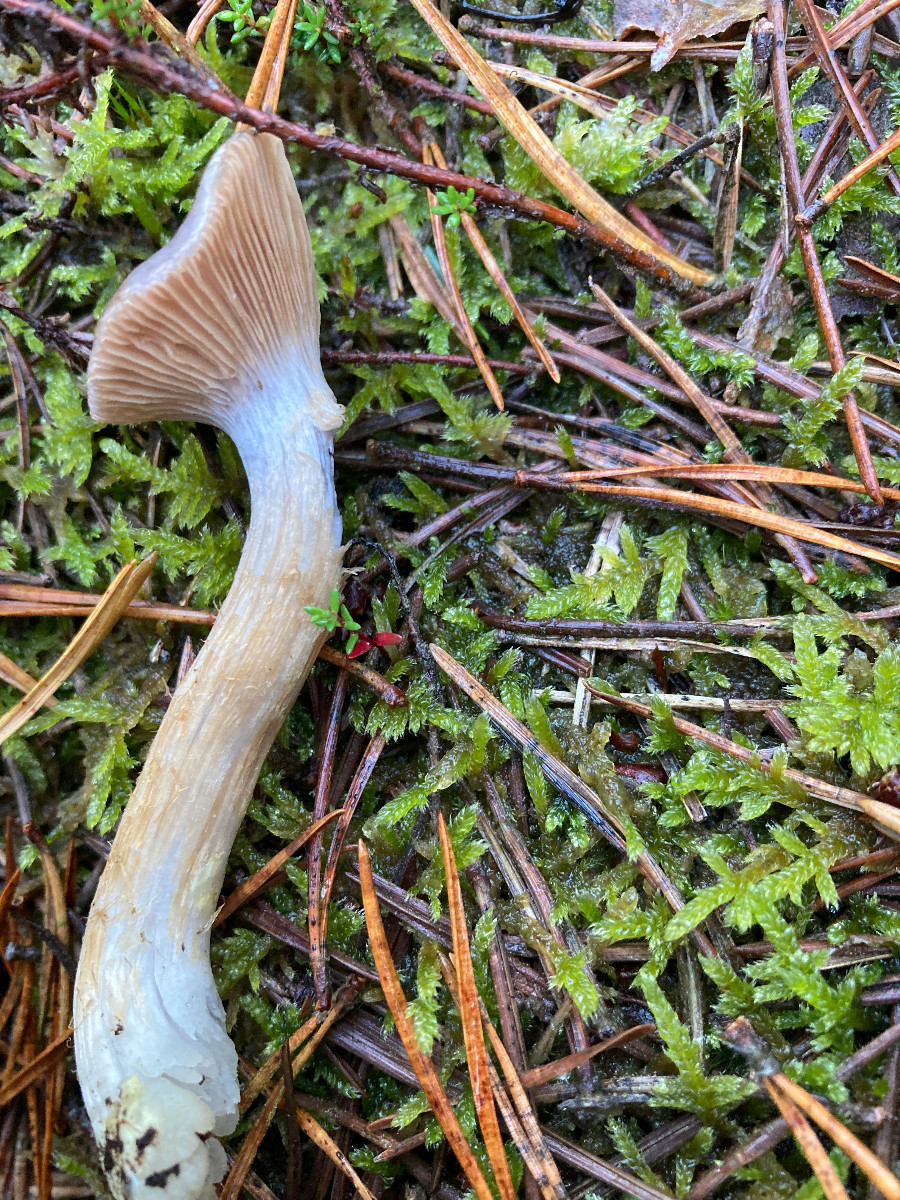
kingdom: Fungi
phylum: Basidiomycota
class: Agaricomycetes
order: Agaricales
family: Cortinariaceae
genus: Cortinarius
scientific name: Cortinarius
